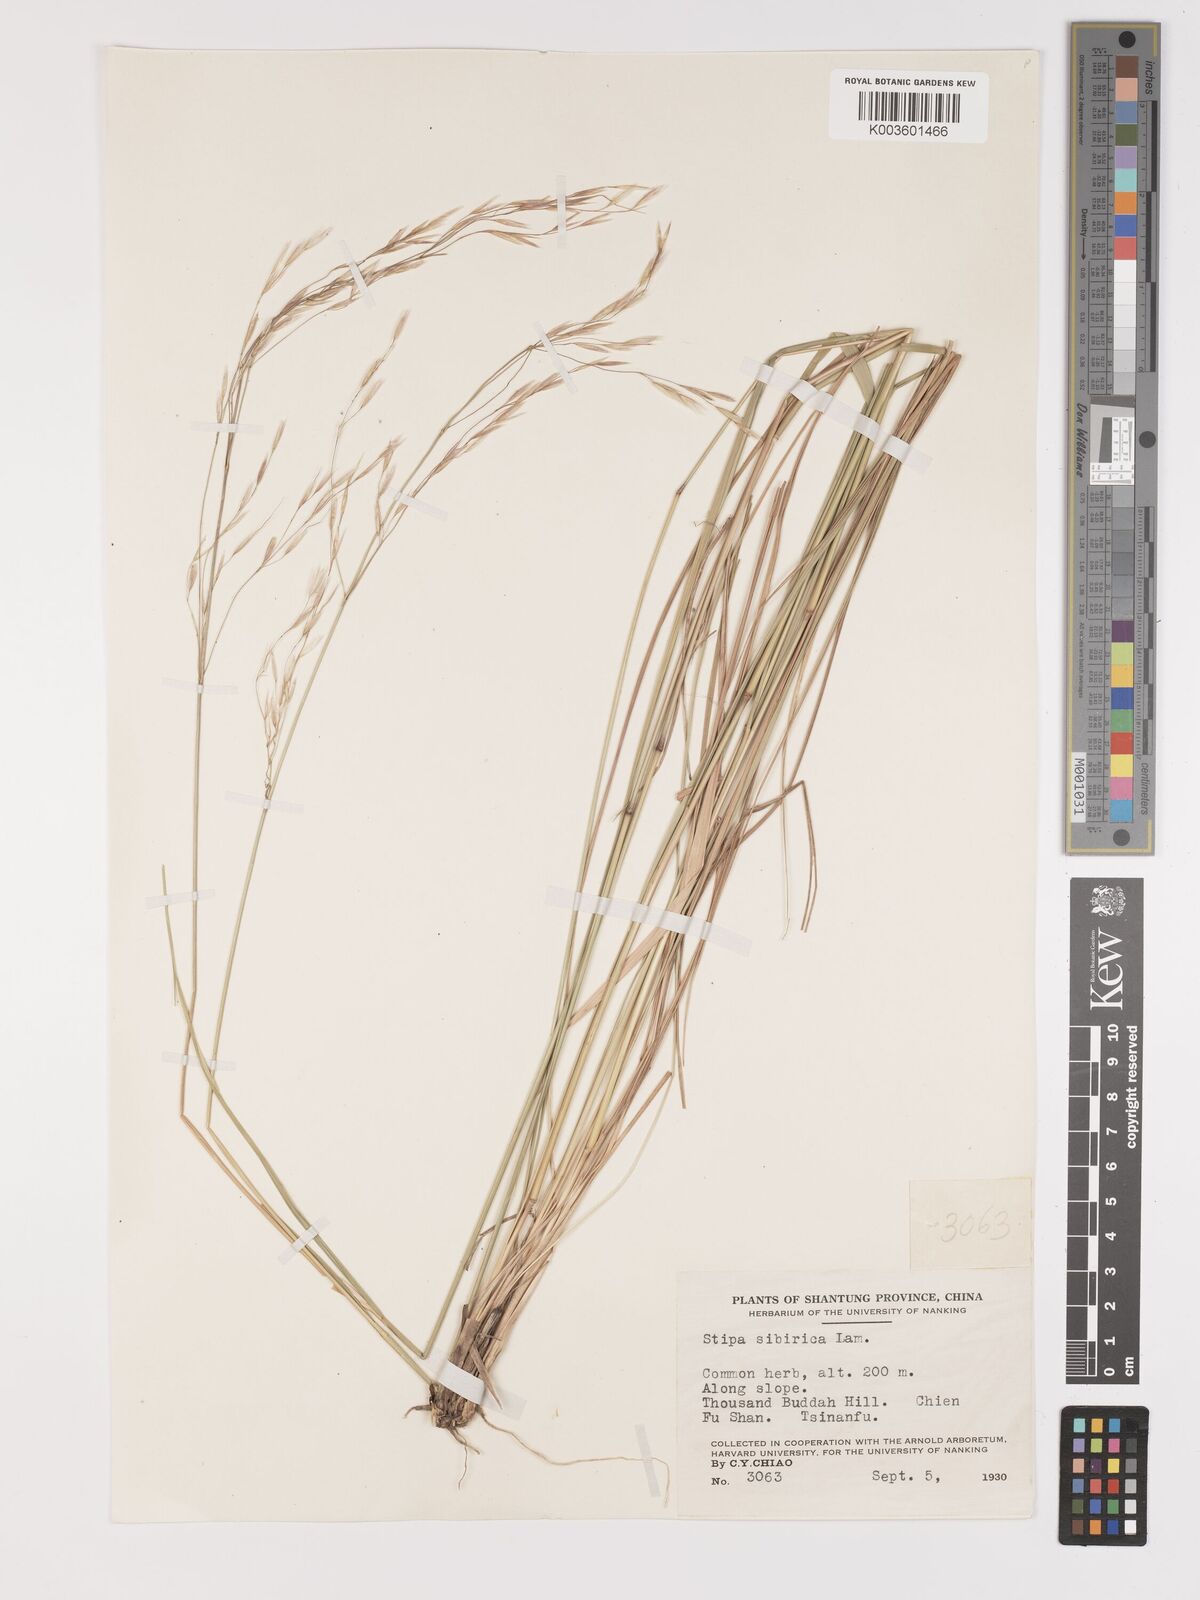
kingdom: Plantae
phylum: Tracheophyta
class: Liliopsida
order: Poales
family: Poaceae
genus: Achnatherum
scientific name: Achnatherum pekinense
